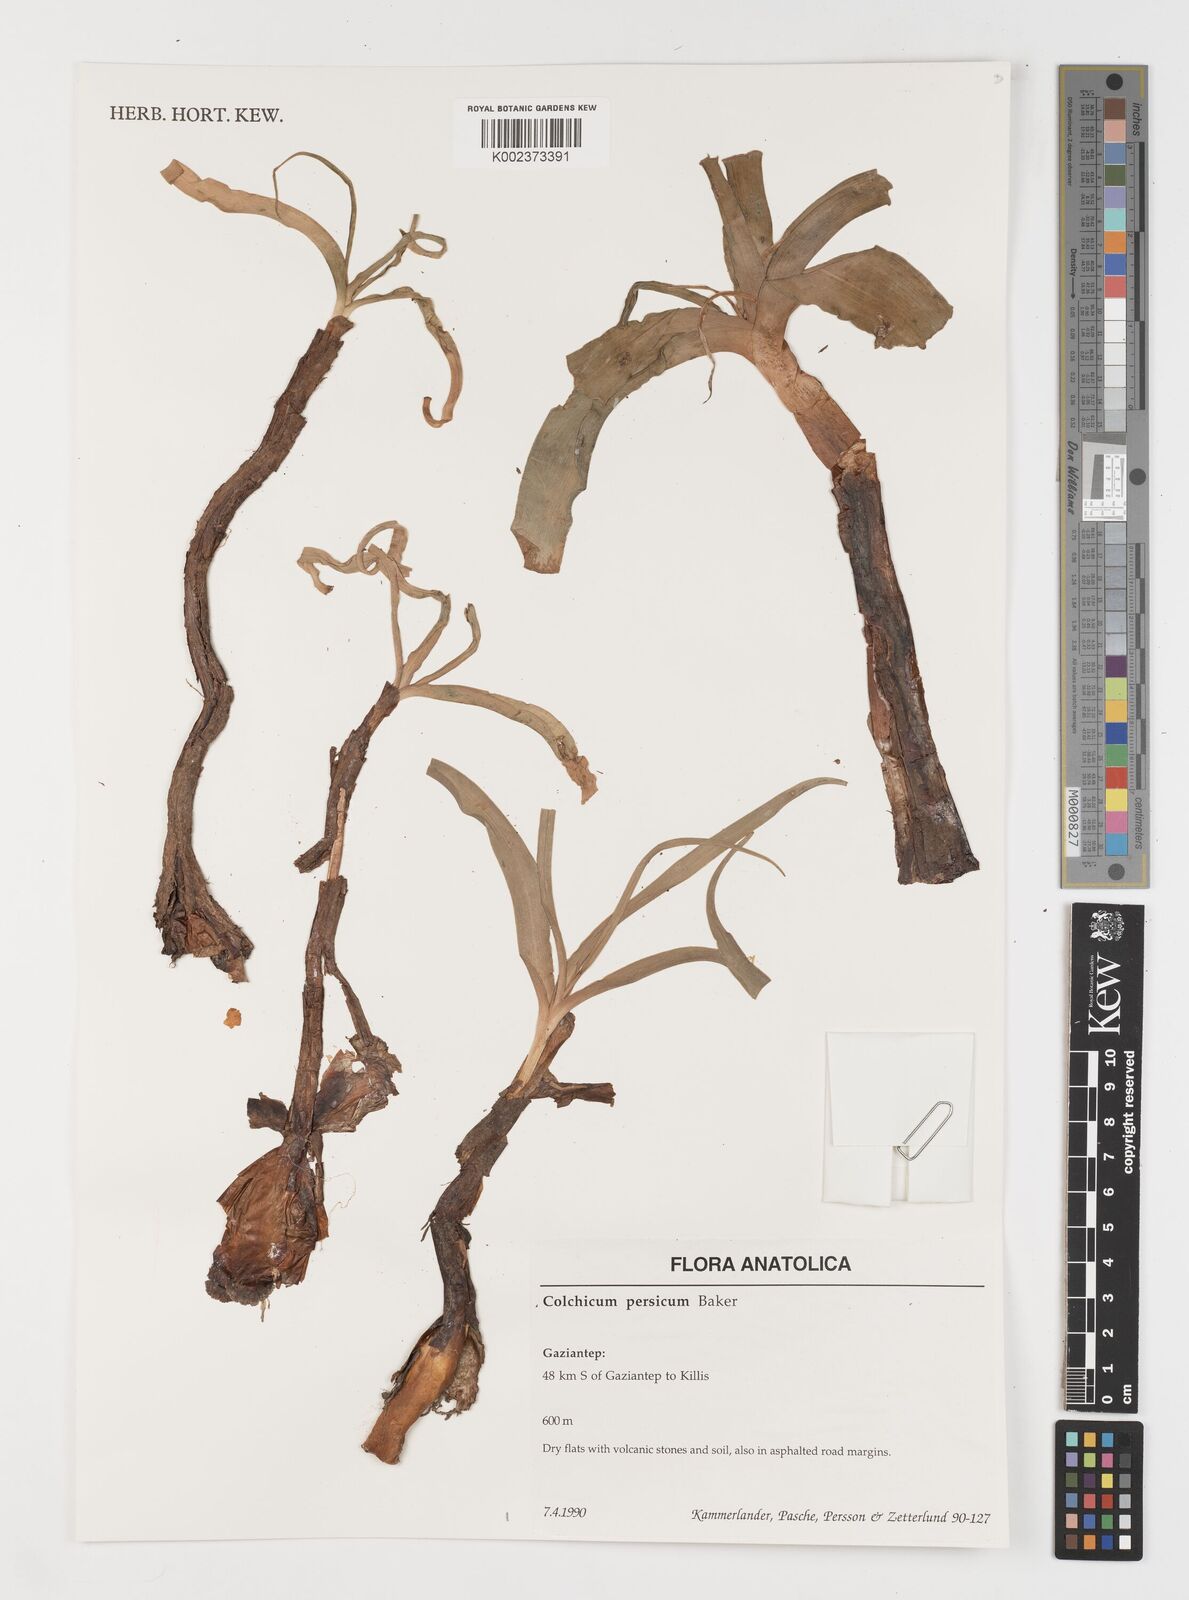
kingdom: Plantae
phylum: Tracheophyta
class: Liliopsida
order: Liliales
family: Colchicaceae
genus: Colchicum
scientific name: Colchicum persicum
